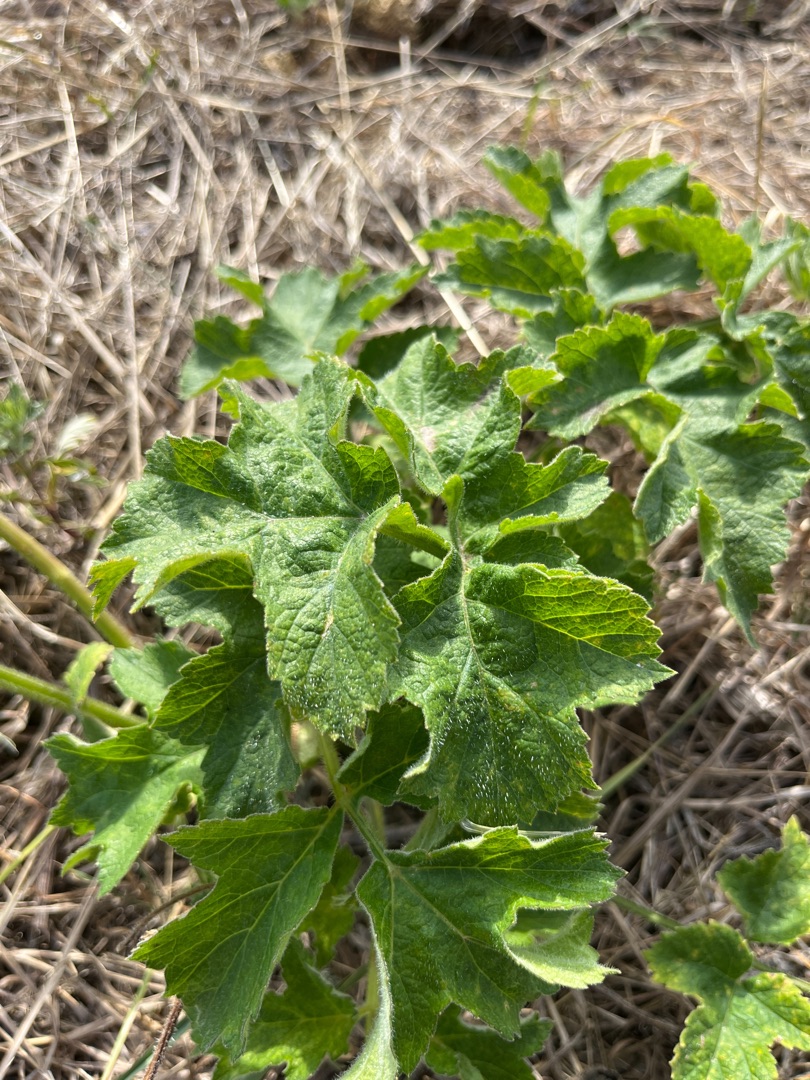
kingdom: Plantae
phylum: Tracheophyta
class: Magnoliopsida
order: Apiales
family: Apiaceae
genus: Heracleum
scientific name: Heracleum sphondylium
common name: Almindelig bjørneklo
